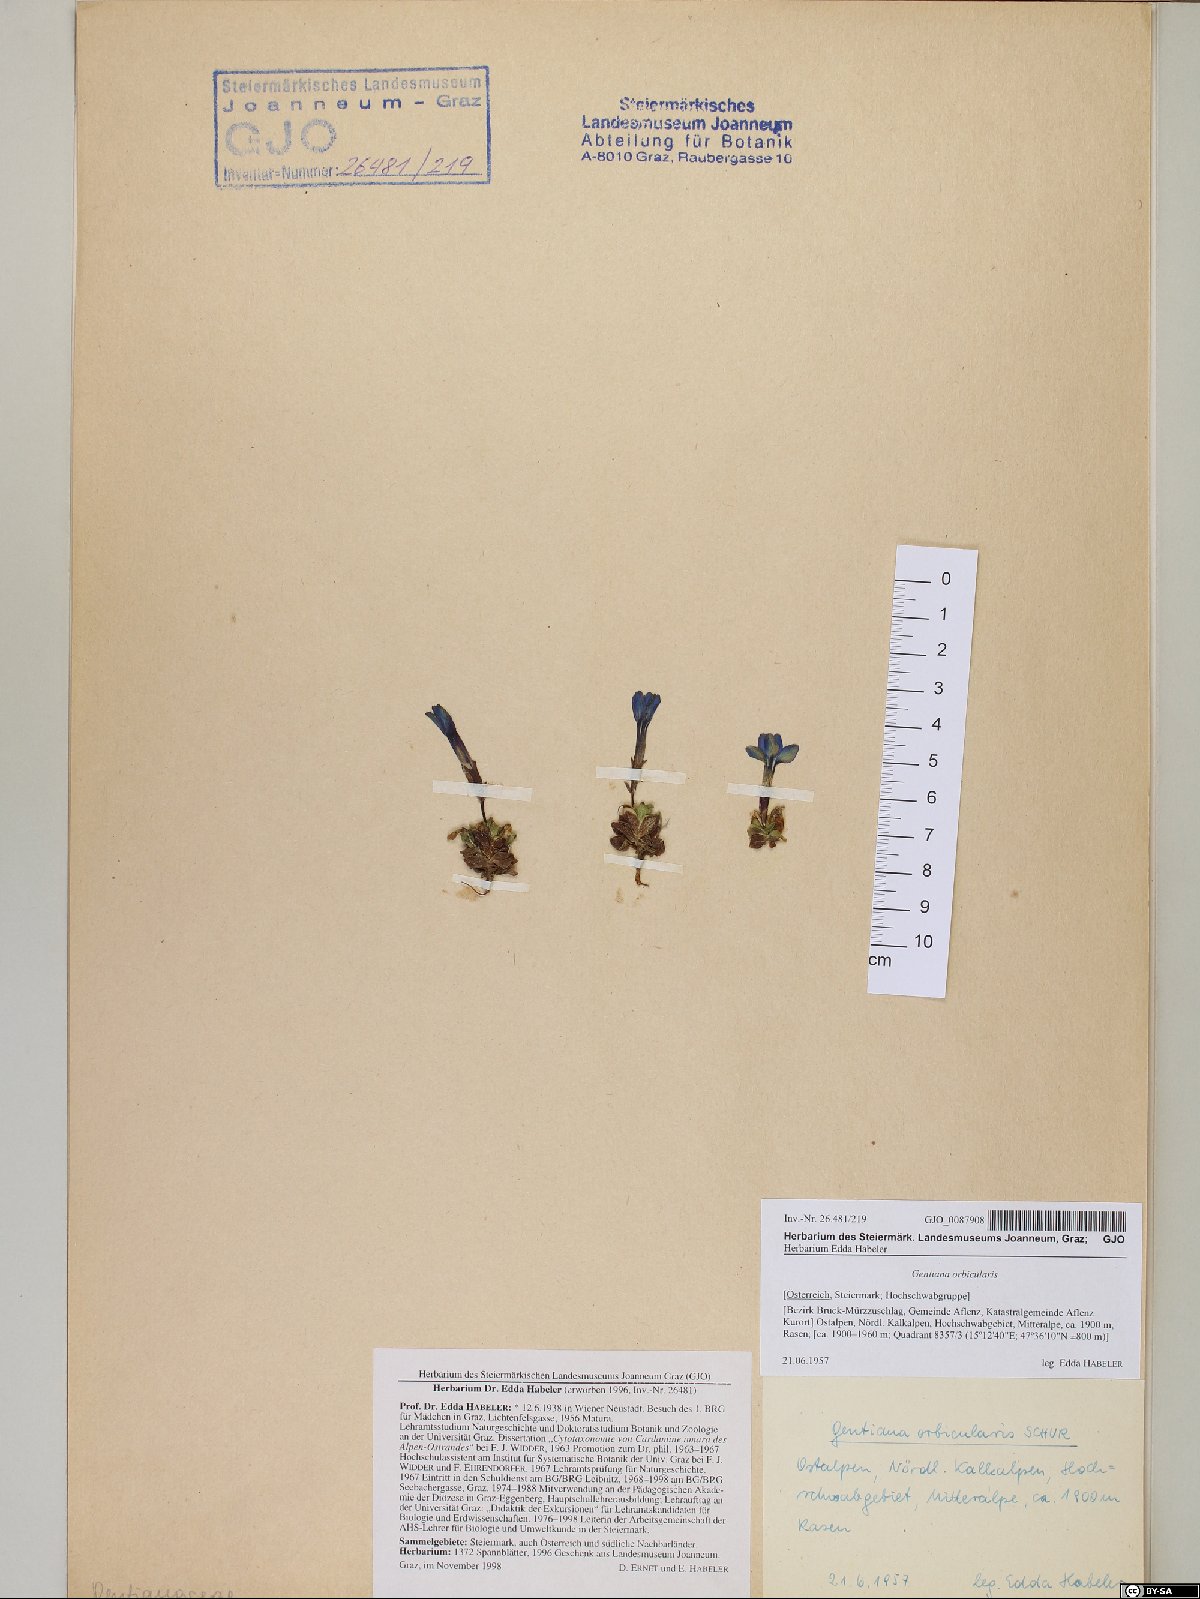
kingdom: Plantae
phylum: Tracheophyta
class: Magnoliopsida
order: Gentianales
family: Gentianaceae
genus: Gentiana
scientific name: Gentiana orbicularis
